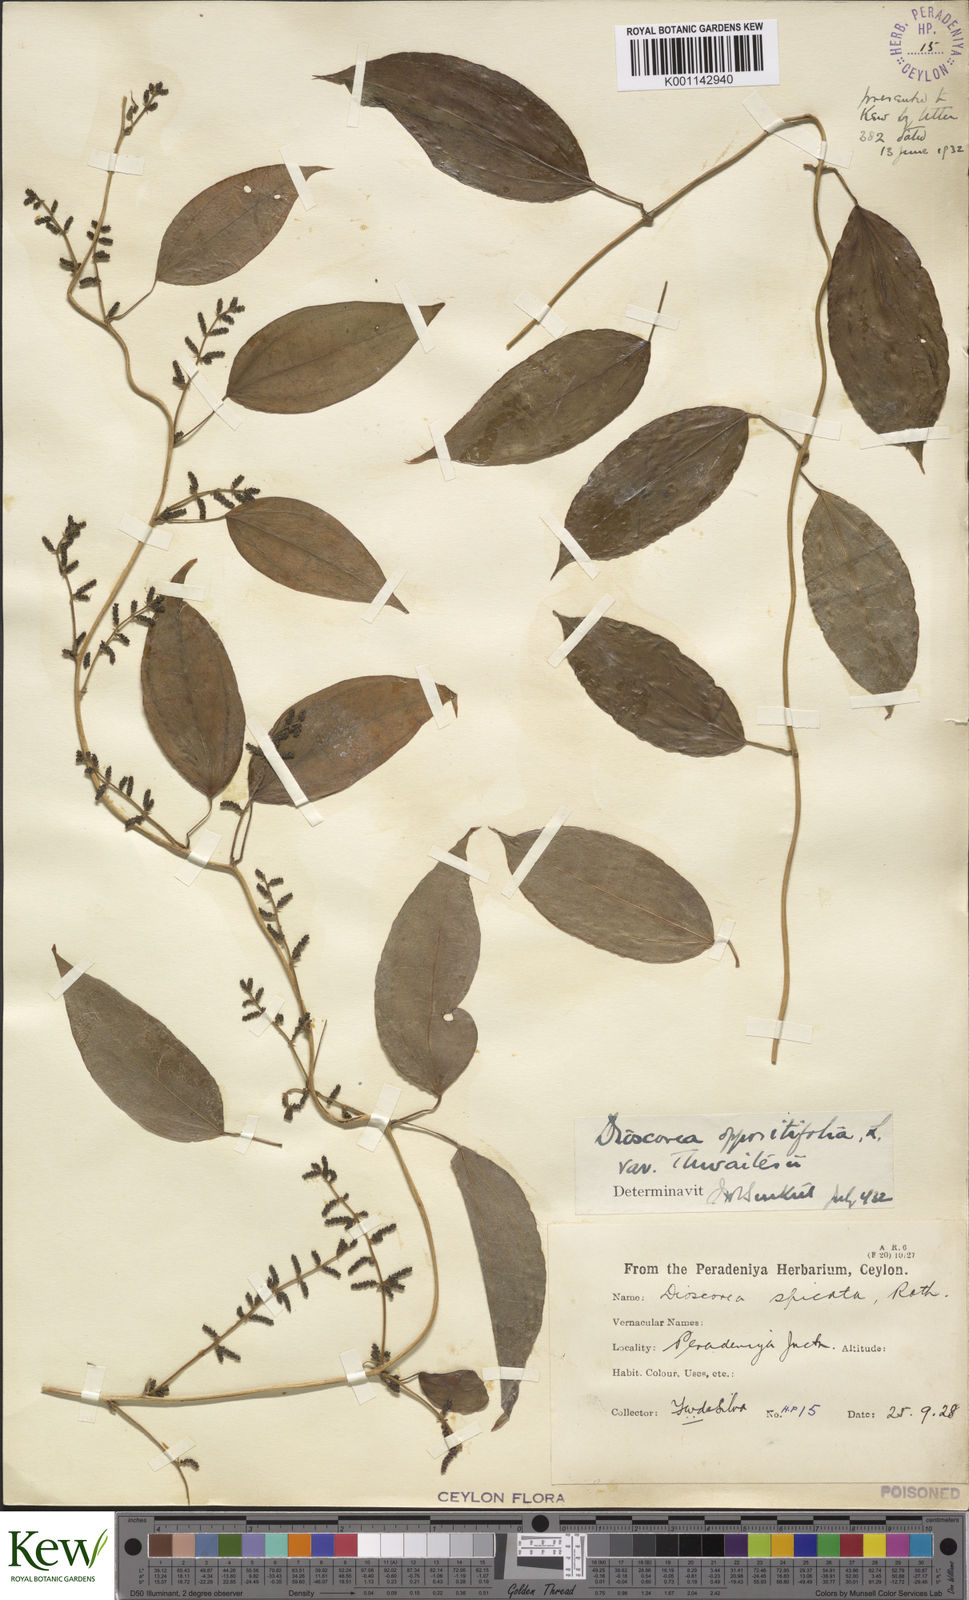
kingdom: Plantae
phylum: Tracheophyta
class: Liliopsida
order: Dioscoreales
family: Dioscoreaceae
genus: Dioscorea
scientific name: Dioscorea oppositifolia
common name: Chinese yam
